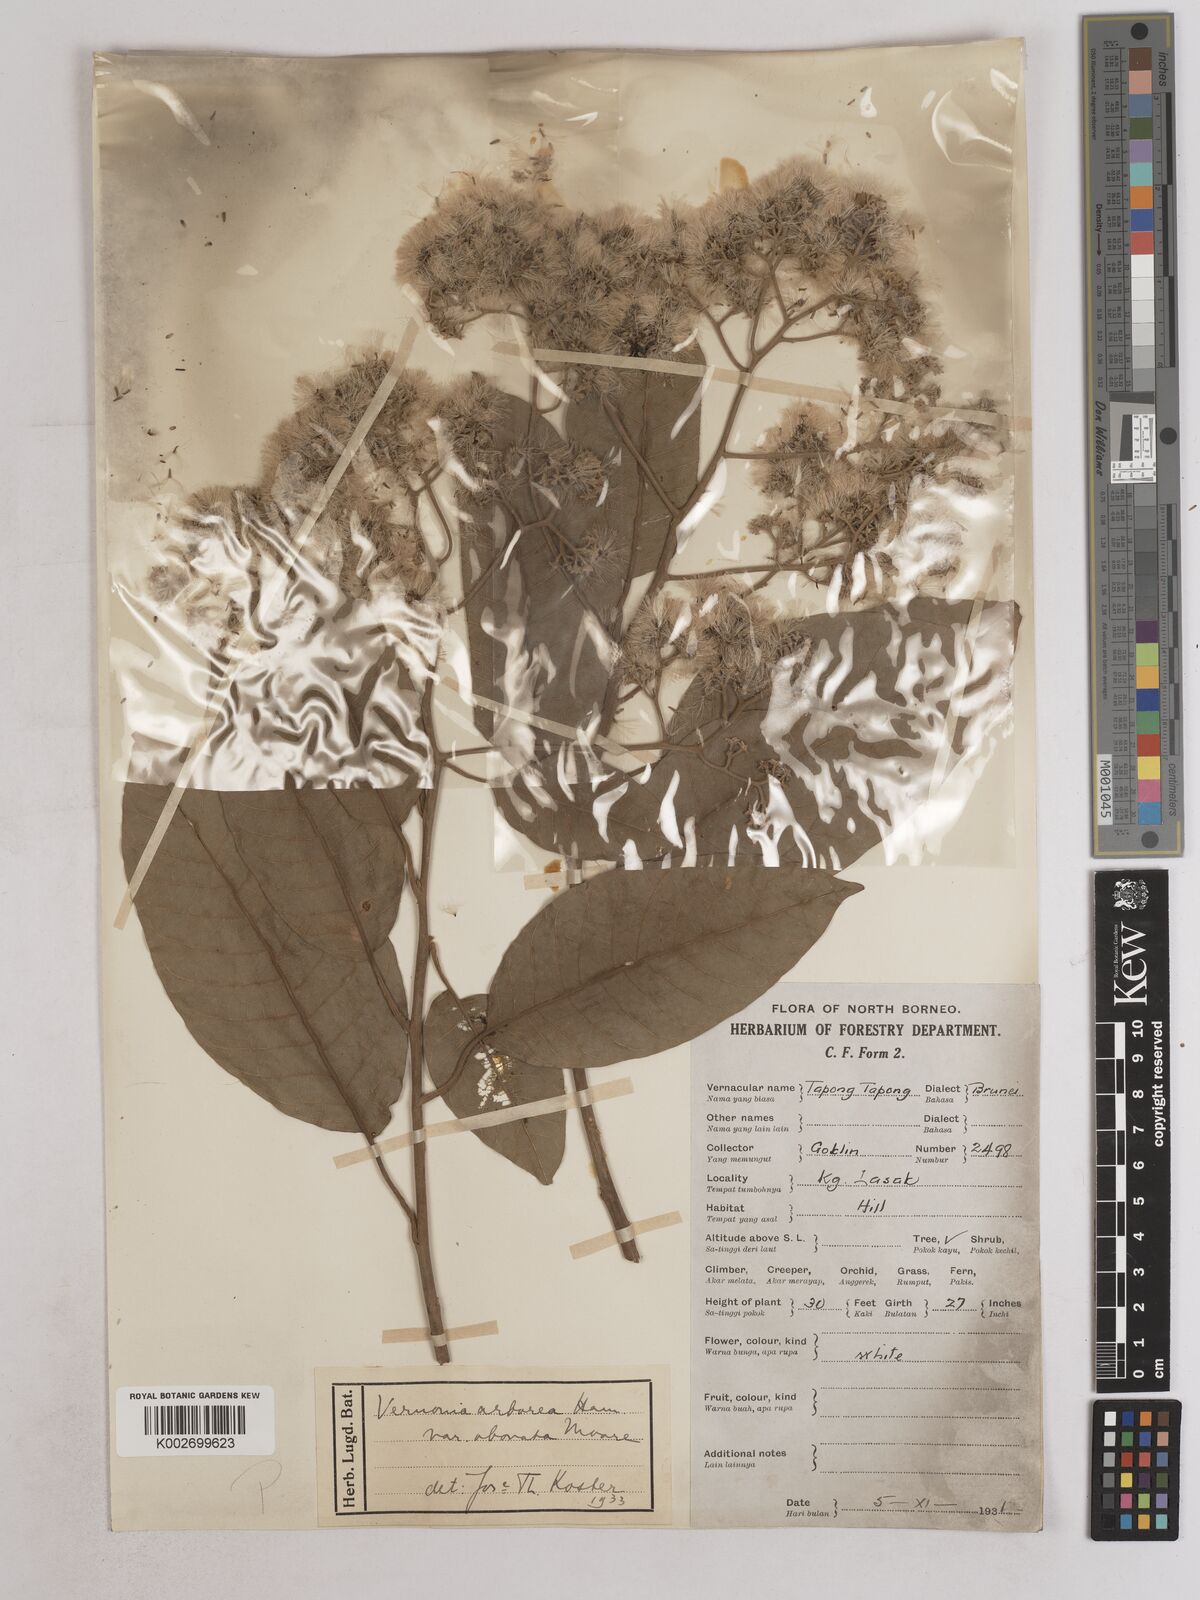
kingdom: Plantae
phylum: Tracheophyta
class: Magnoliopsida
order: Asterales
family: Asteraceae
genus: Strobocalyx
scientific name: Strobocalyx arborea
